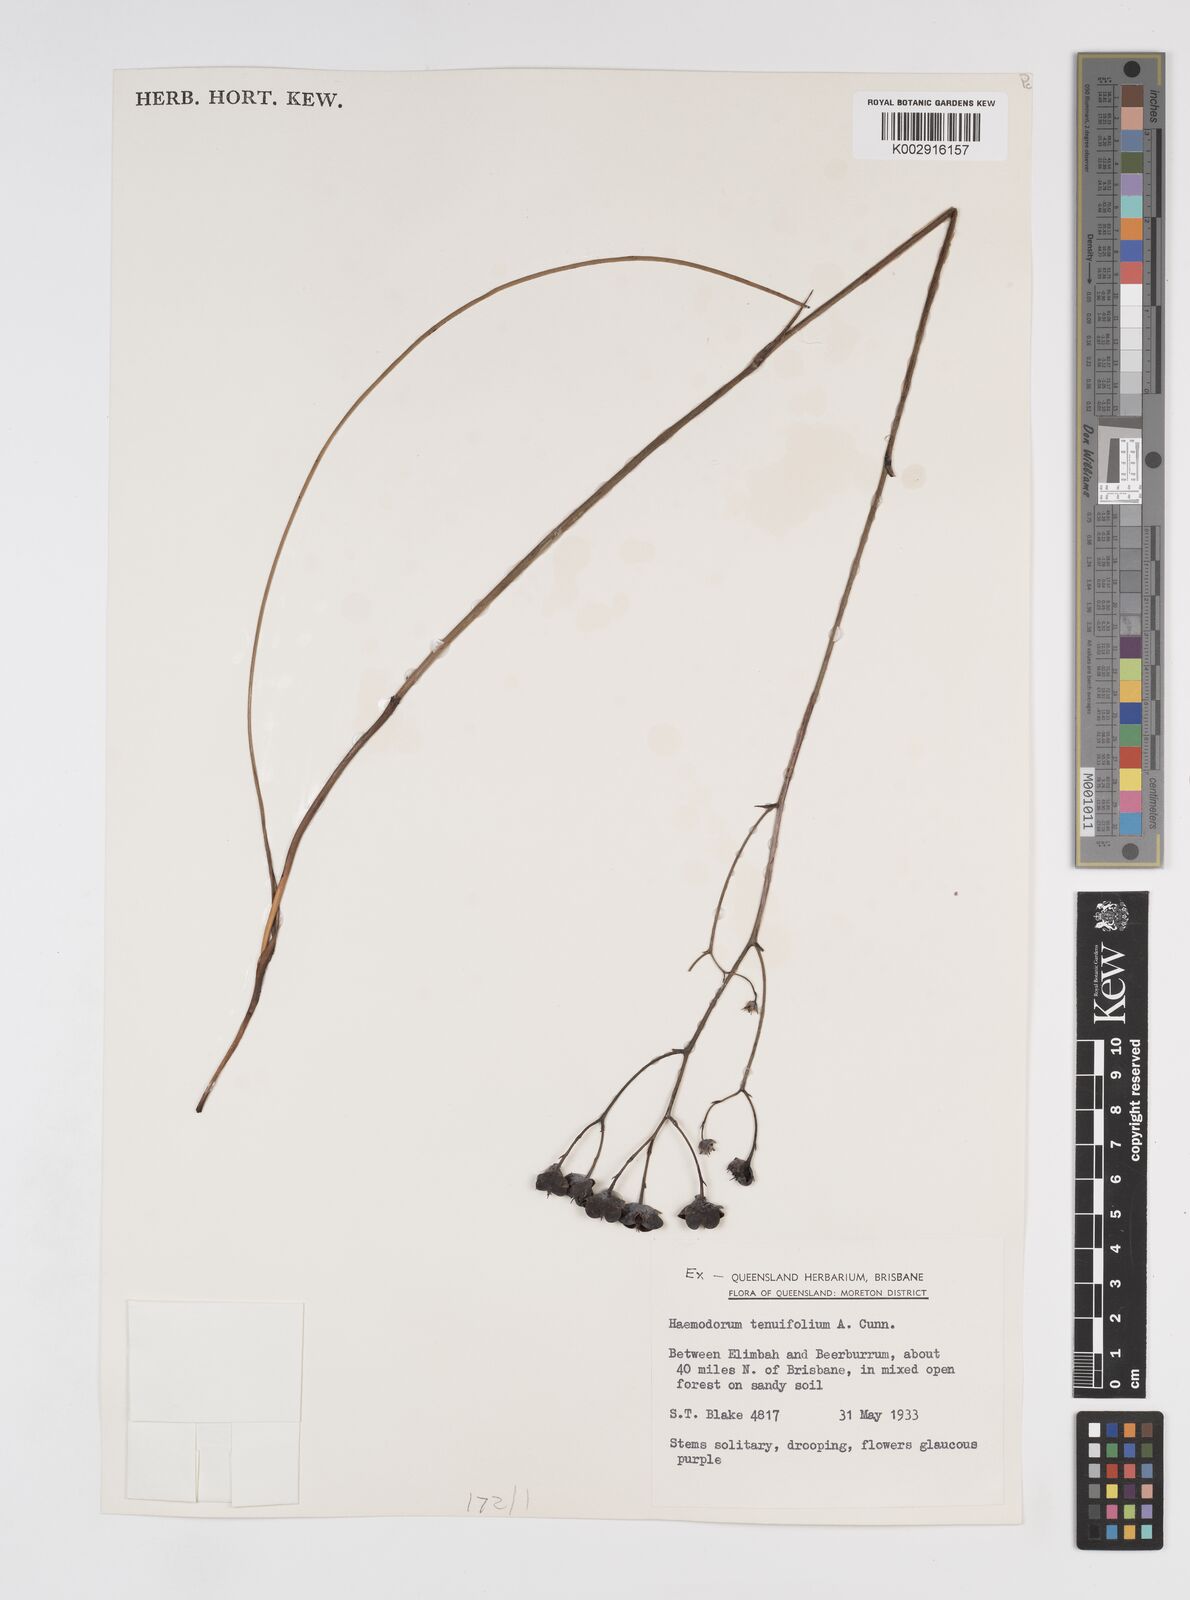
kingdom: Plantae
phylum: Tracheophyta
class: Liliopsida
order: Commelinales
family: Haemodoraceae
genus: Haemodorum
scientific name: Haemodorum tenuifolium
